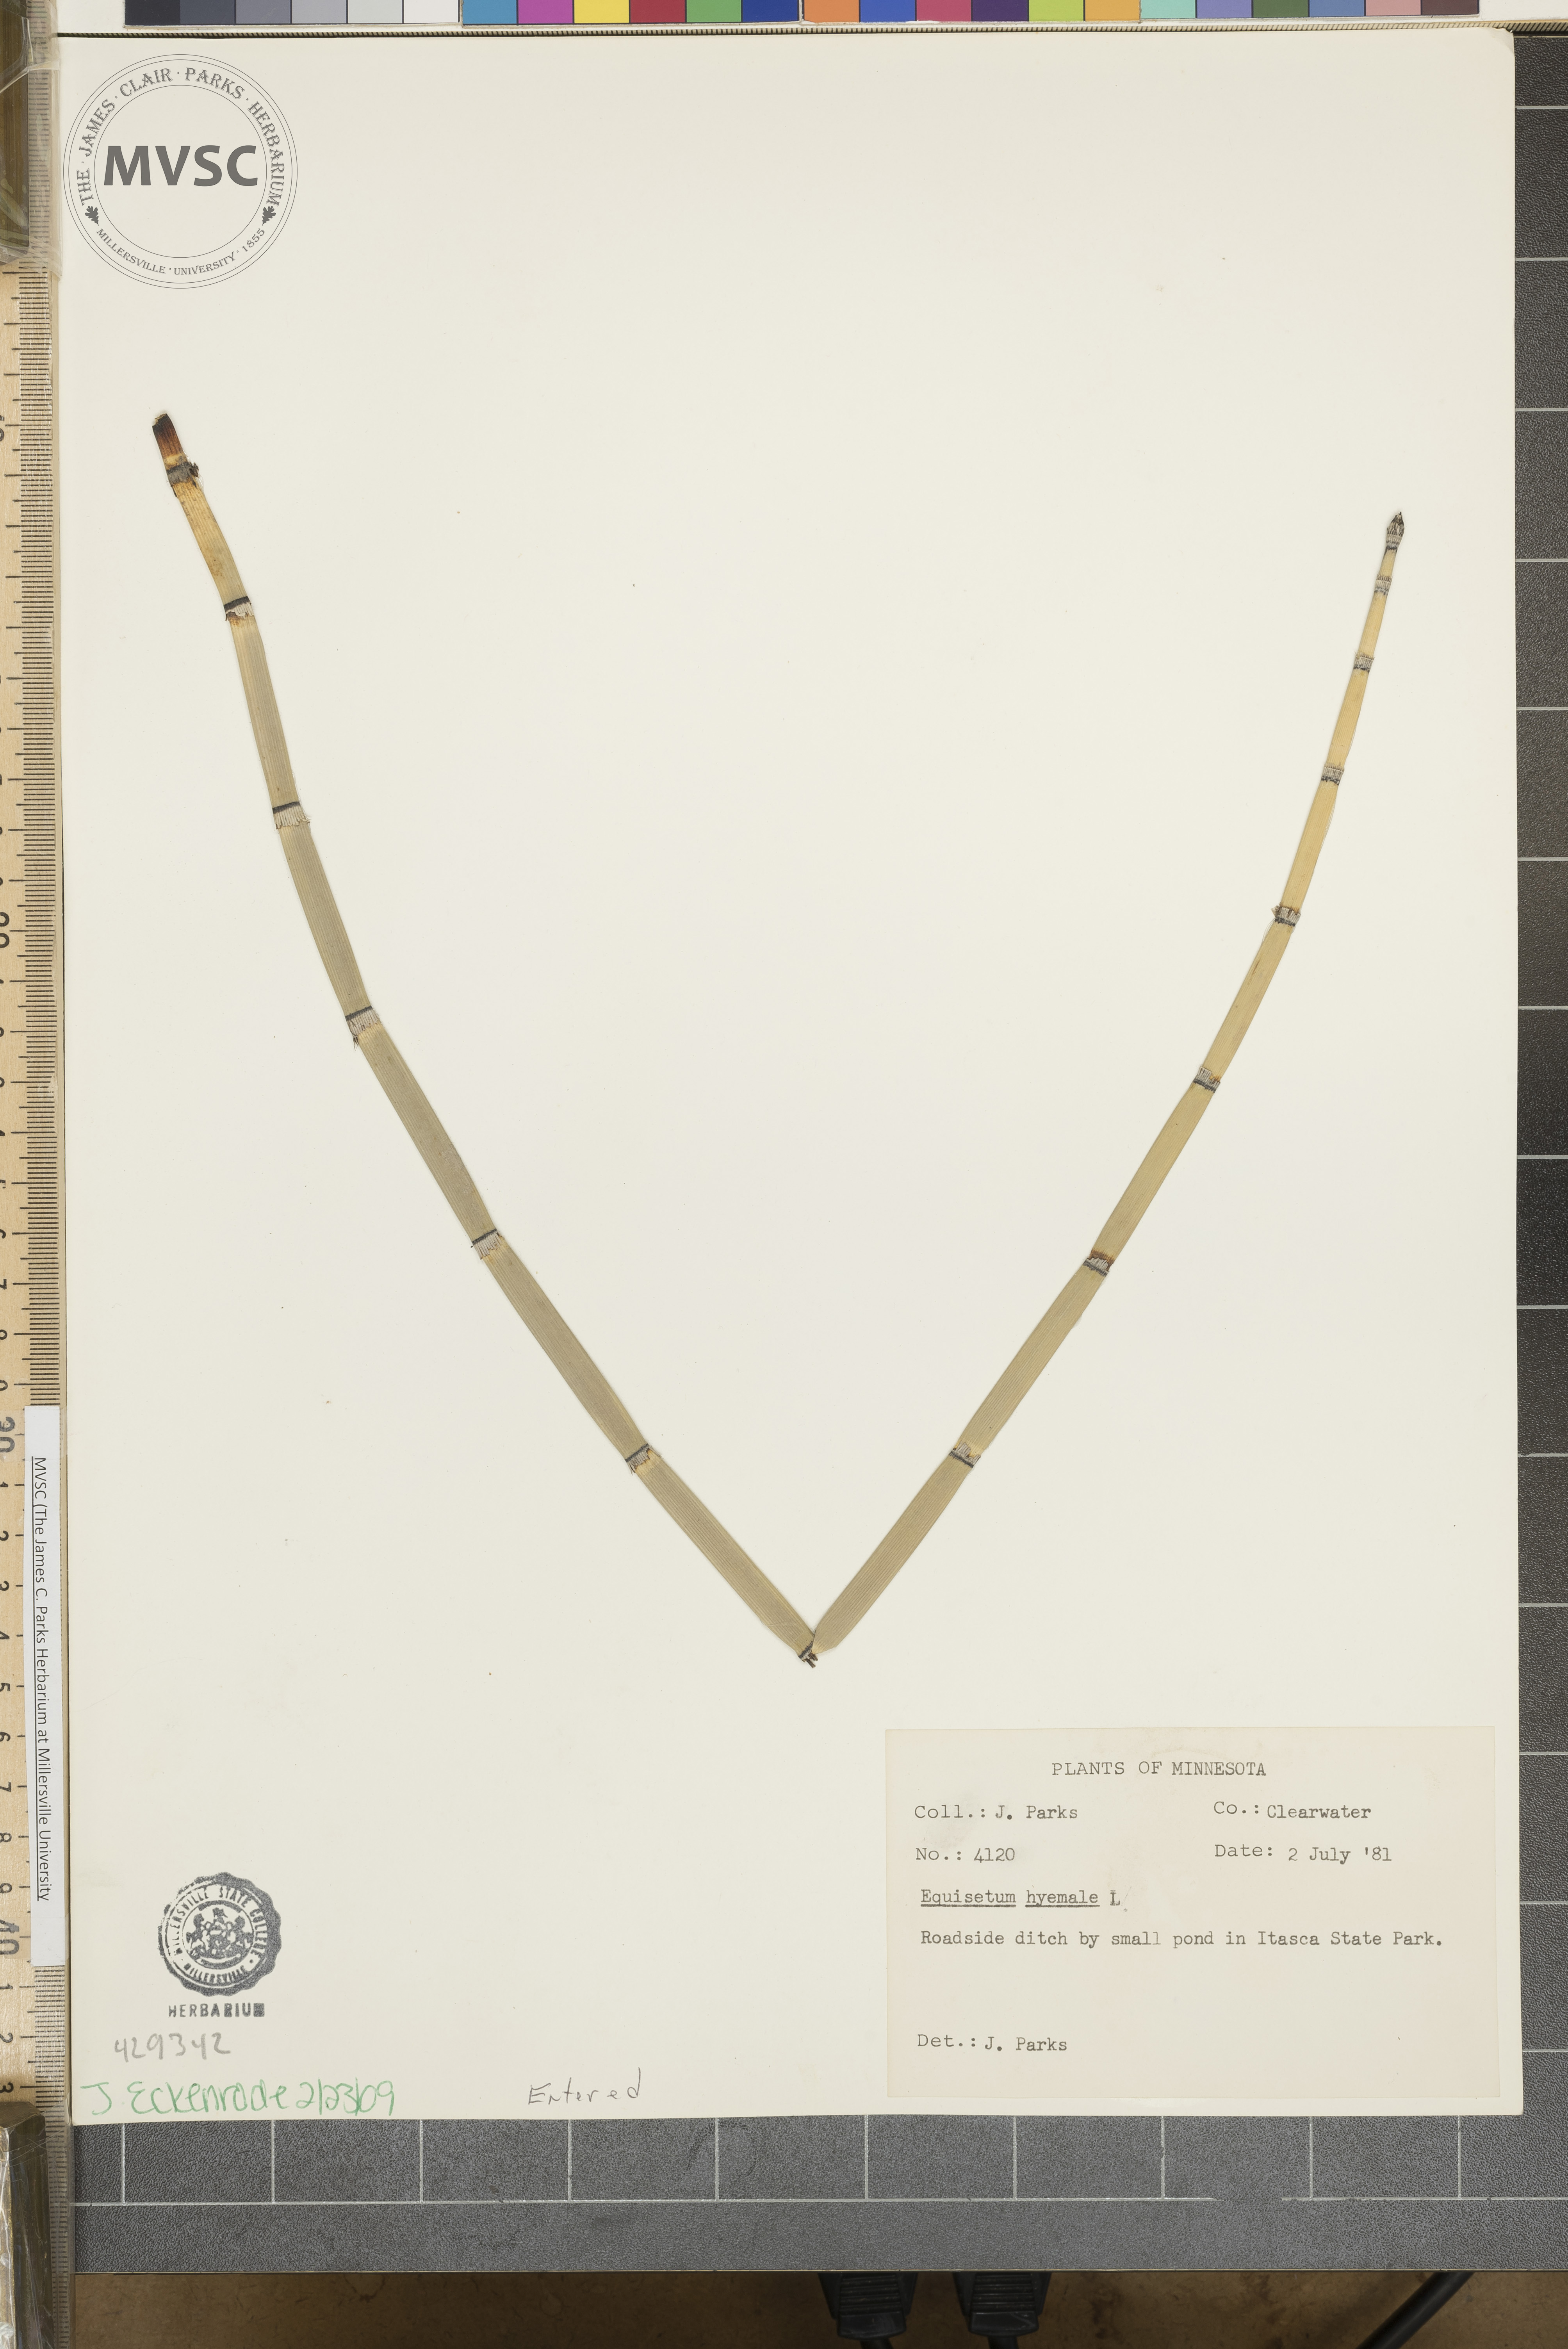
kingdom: Plantae
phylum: Tracheophyta
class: Polypodiopsida
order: Equisetales
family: Equisetaceae
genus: Equisetum
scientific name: Equisetum hyemale
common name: Rough horsetail
